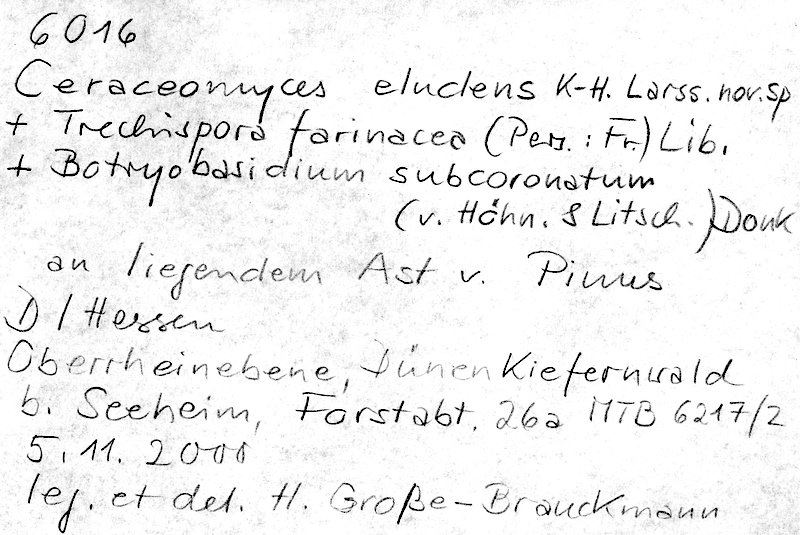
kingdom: Fungi
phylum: Basidiomycota
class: Agaricomycetes
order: Cantharellales
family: Botryobasidiaceae
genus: Botryobasidium
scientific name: Botryobasidium subcoronatum
